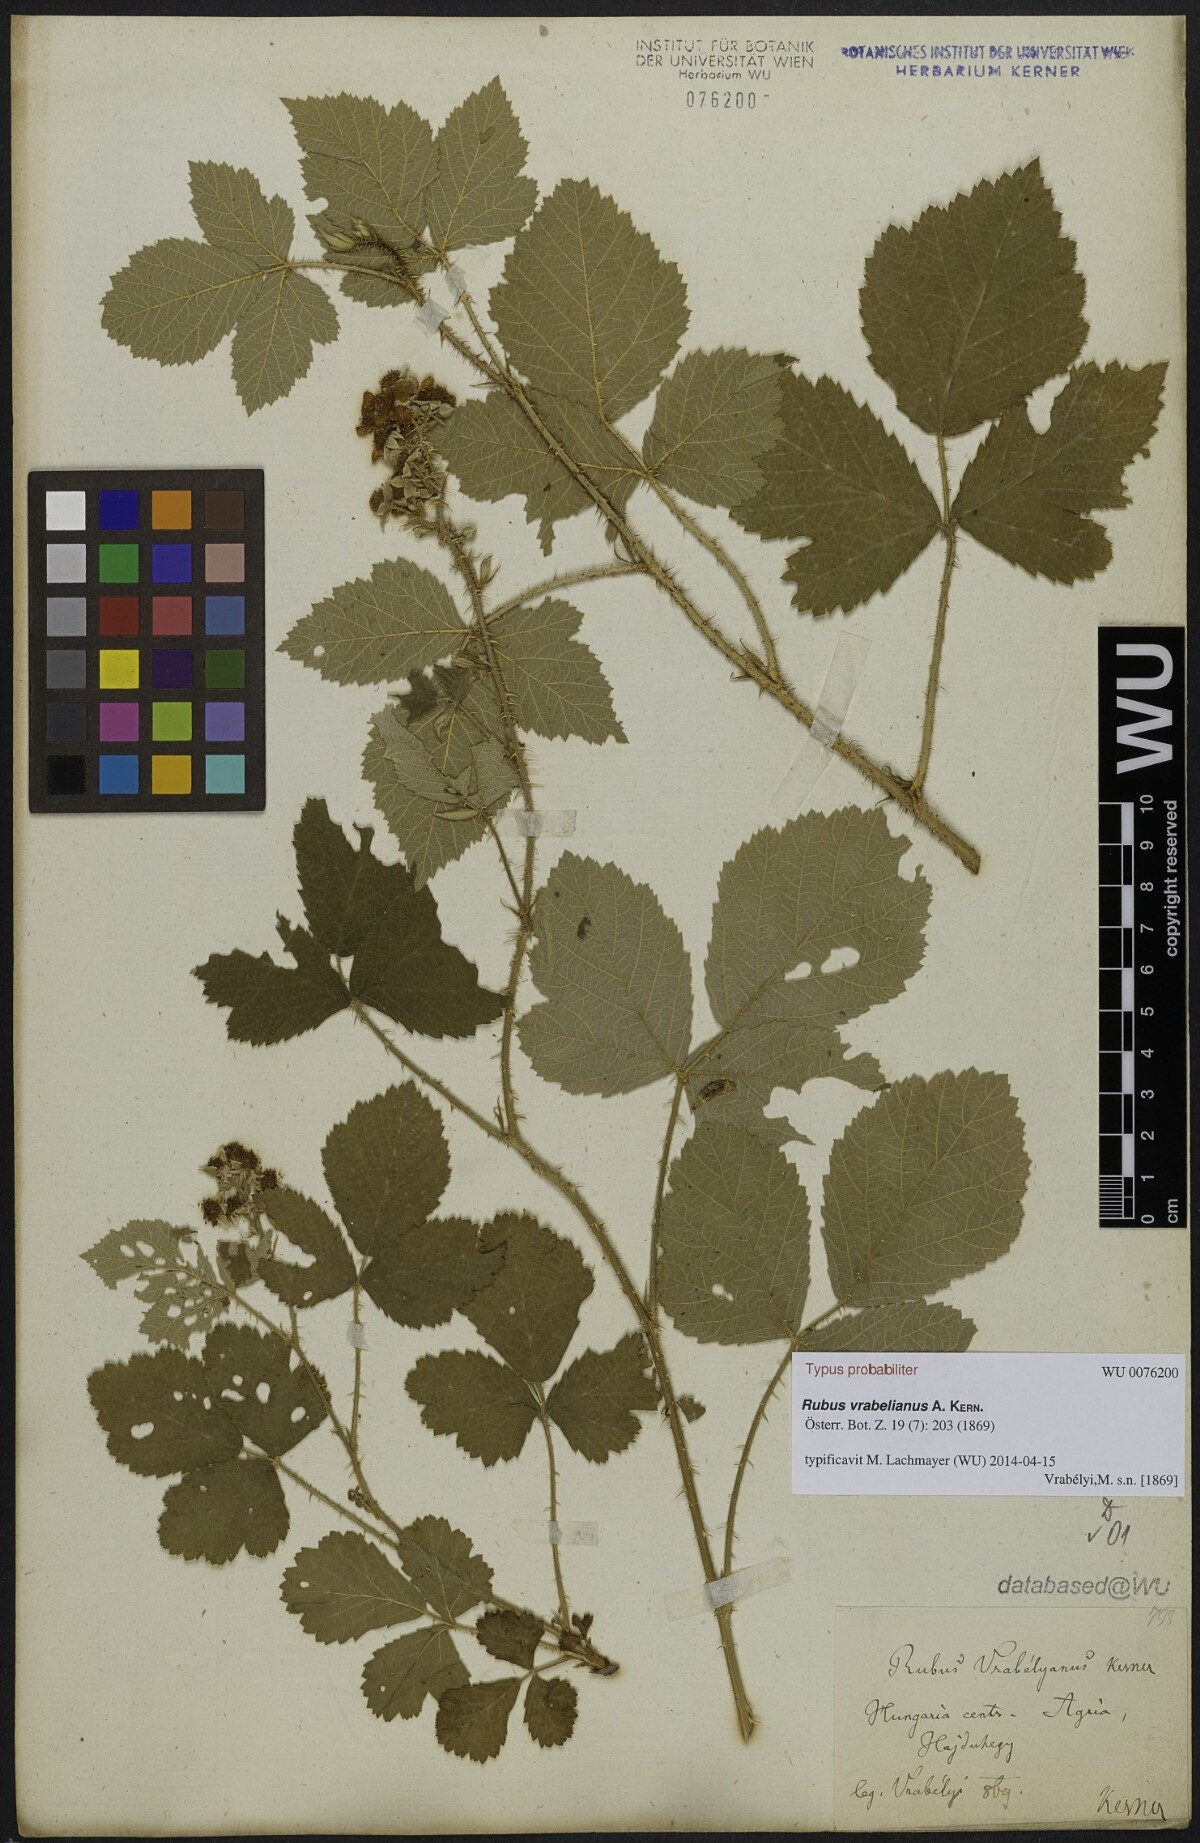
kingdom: Plantae
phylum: Tracheophyta
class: Magnoliopsida
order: Rosales
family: Rosaceae
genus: Rubus
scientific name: Rubus vrabelianus
